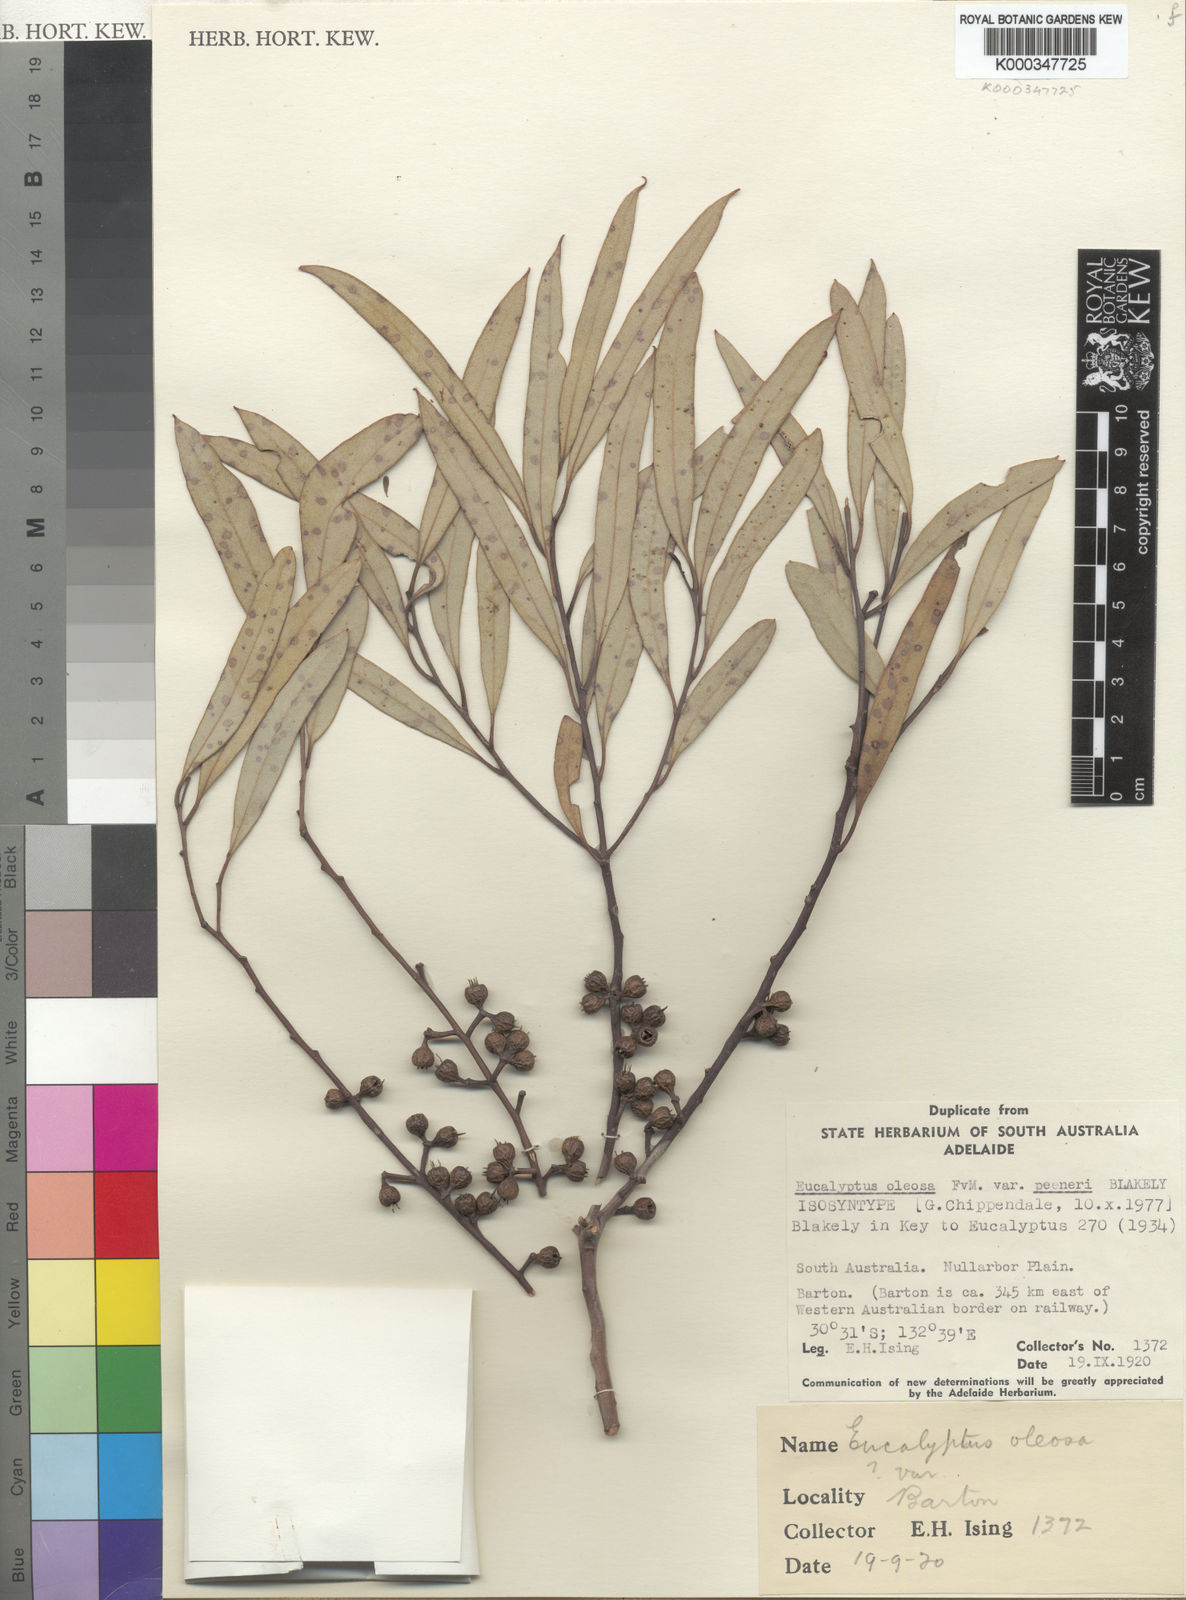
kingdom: Plantae
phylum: Tracheophyta
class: Magnoliopsida
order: Myrtales
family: Myrtaceae
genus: Eucalyptus
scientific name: Eucalyptus eremicola
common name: Nawa mallee
